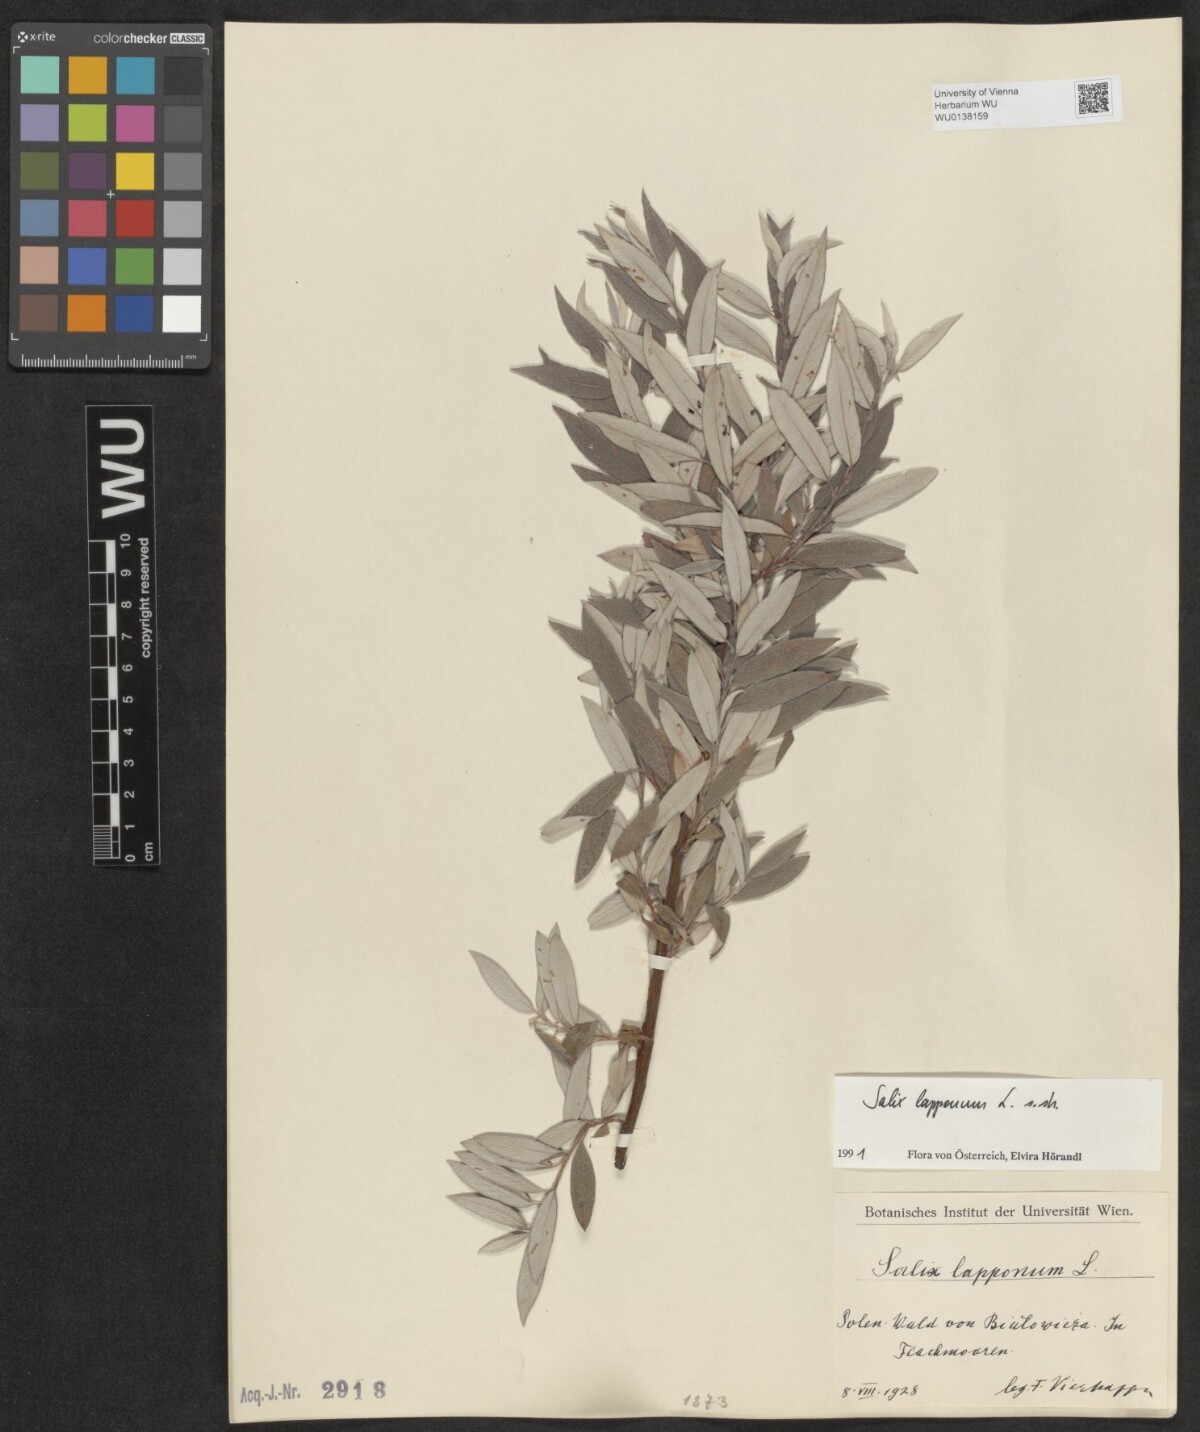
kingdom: Plantae
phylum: Tracheophyta
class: Magnoliopsida
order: Malpighiales
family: Salicaceae
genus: Salix
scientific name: Salix lapponum
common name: Downy willow
